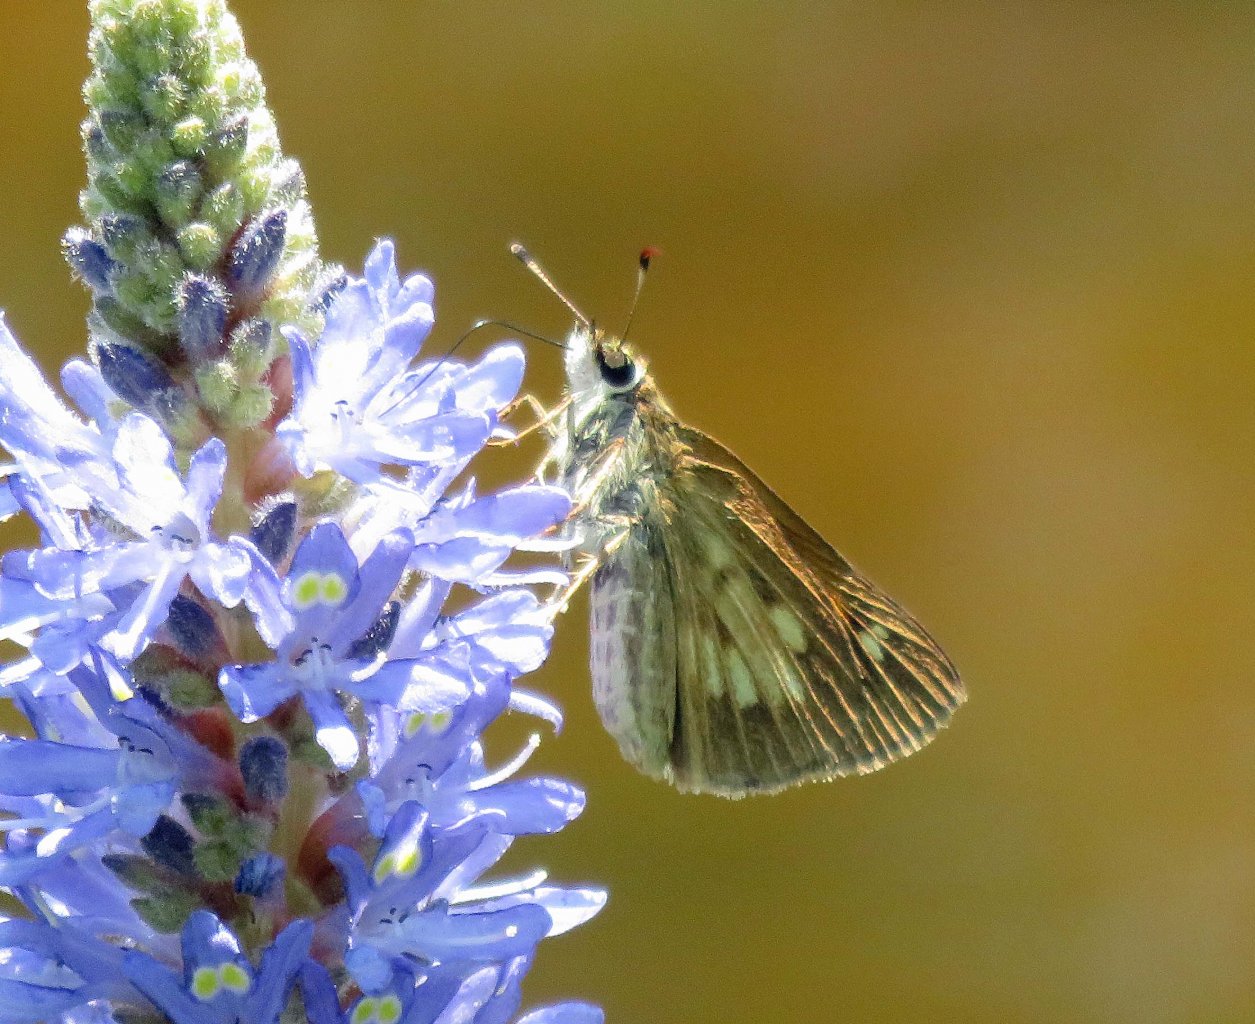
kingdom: Animalia
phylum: Arthropoda
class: Insecta
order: Lepidoptera
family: Hesperiidae
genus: Poanes
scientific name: Poanes viator
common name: Broad-winged Skipper
